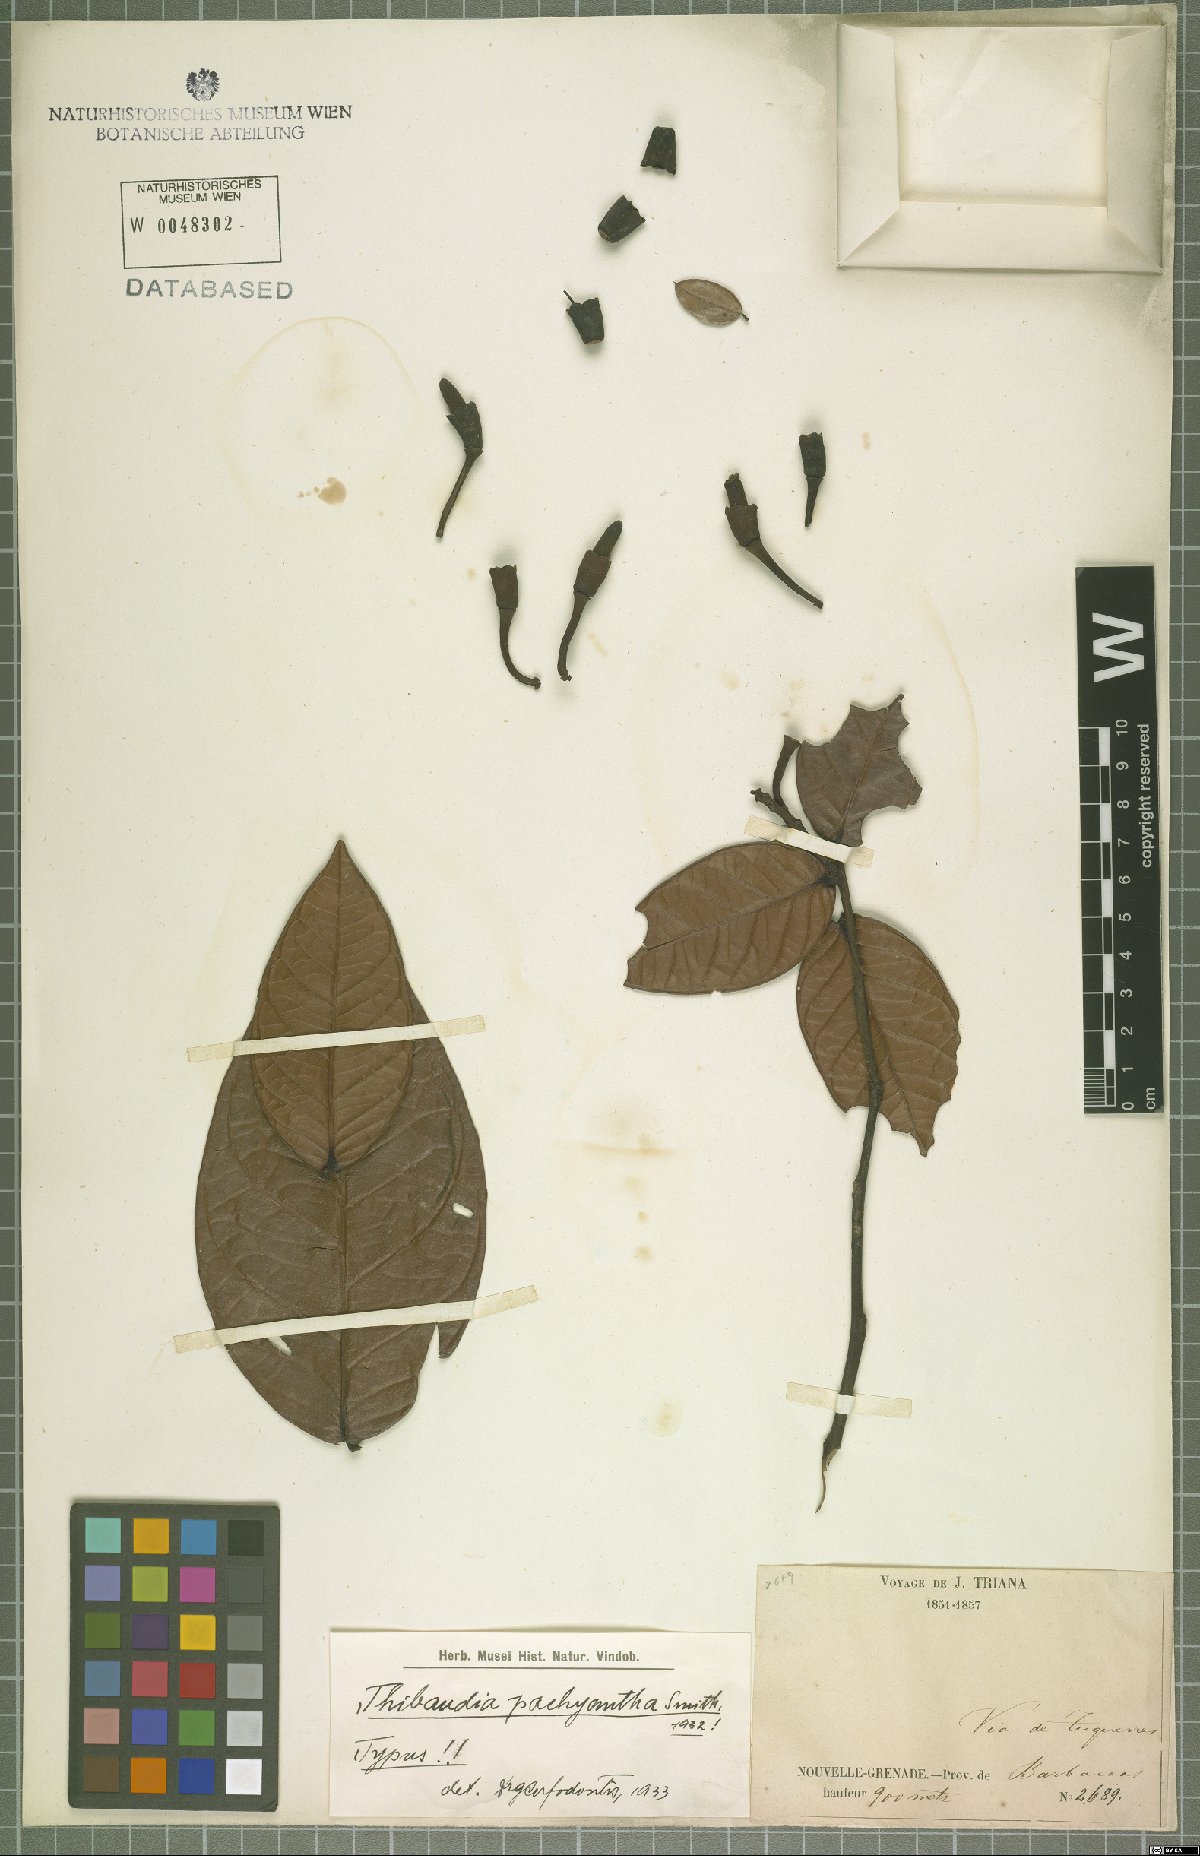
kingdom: Plantae
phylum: Tracheophyta
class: Magnoliopsida
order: Ericales
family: Ericaceae
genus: Thibaudia
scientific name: Thibaudia pachyantha
